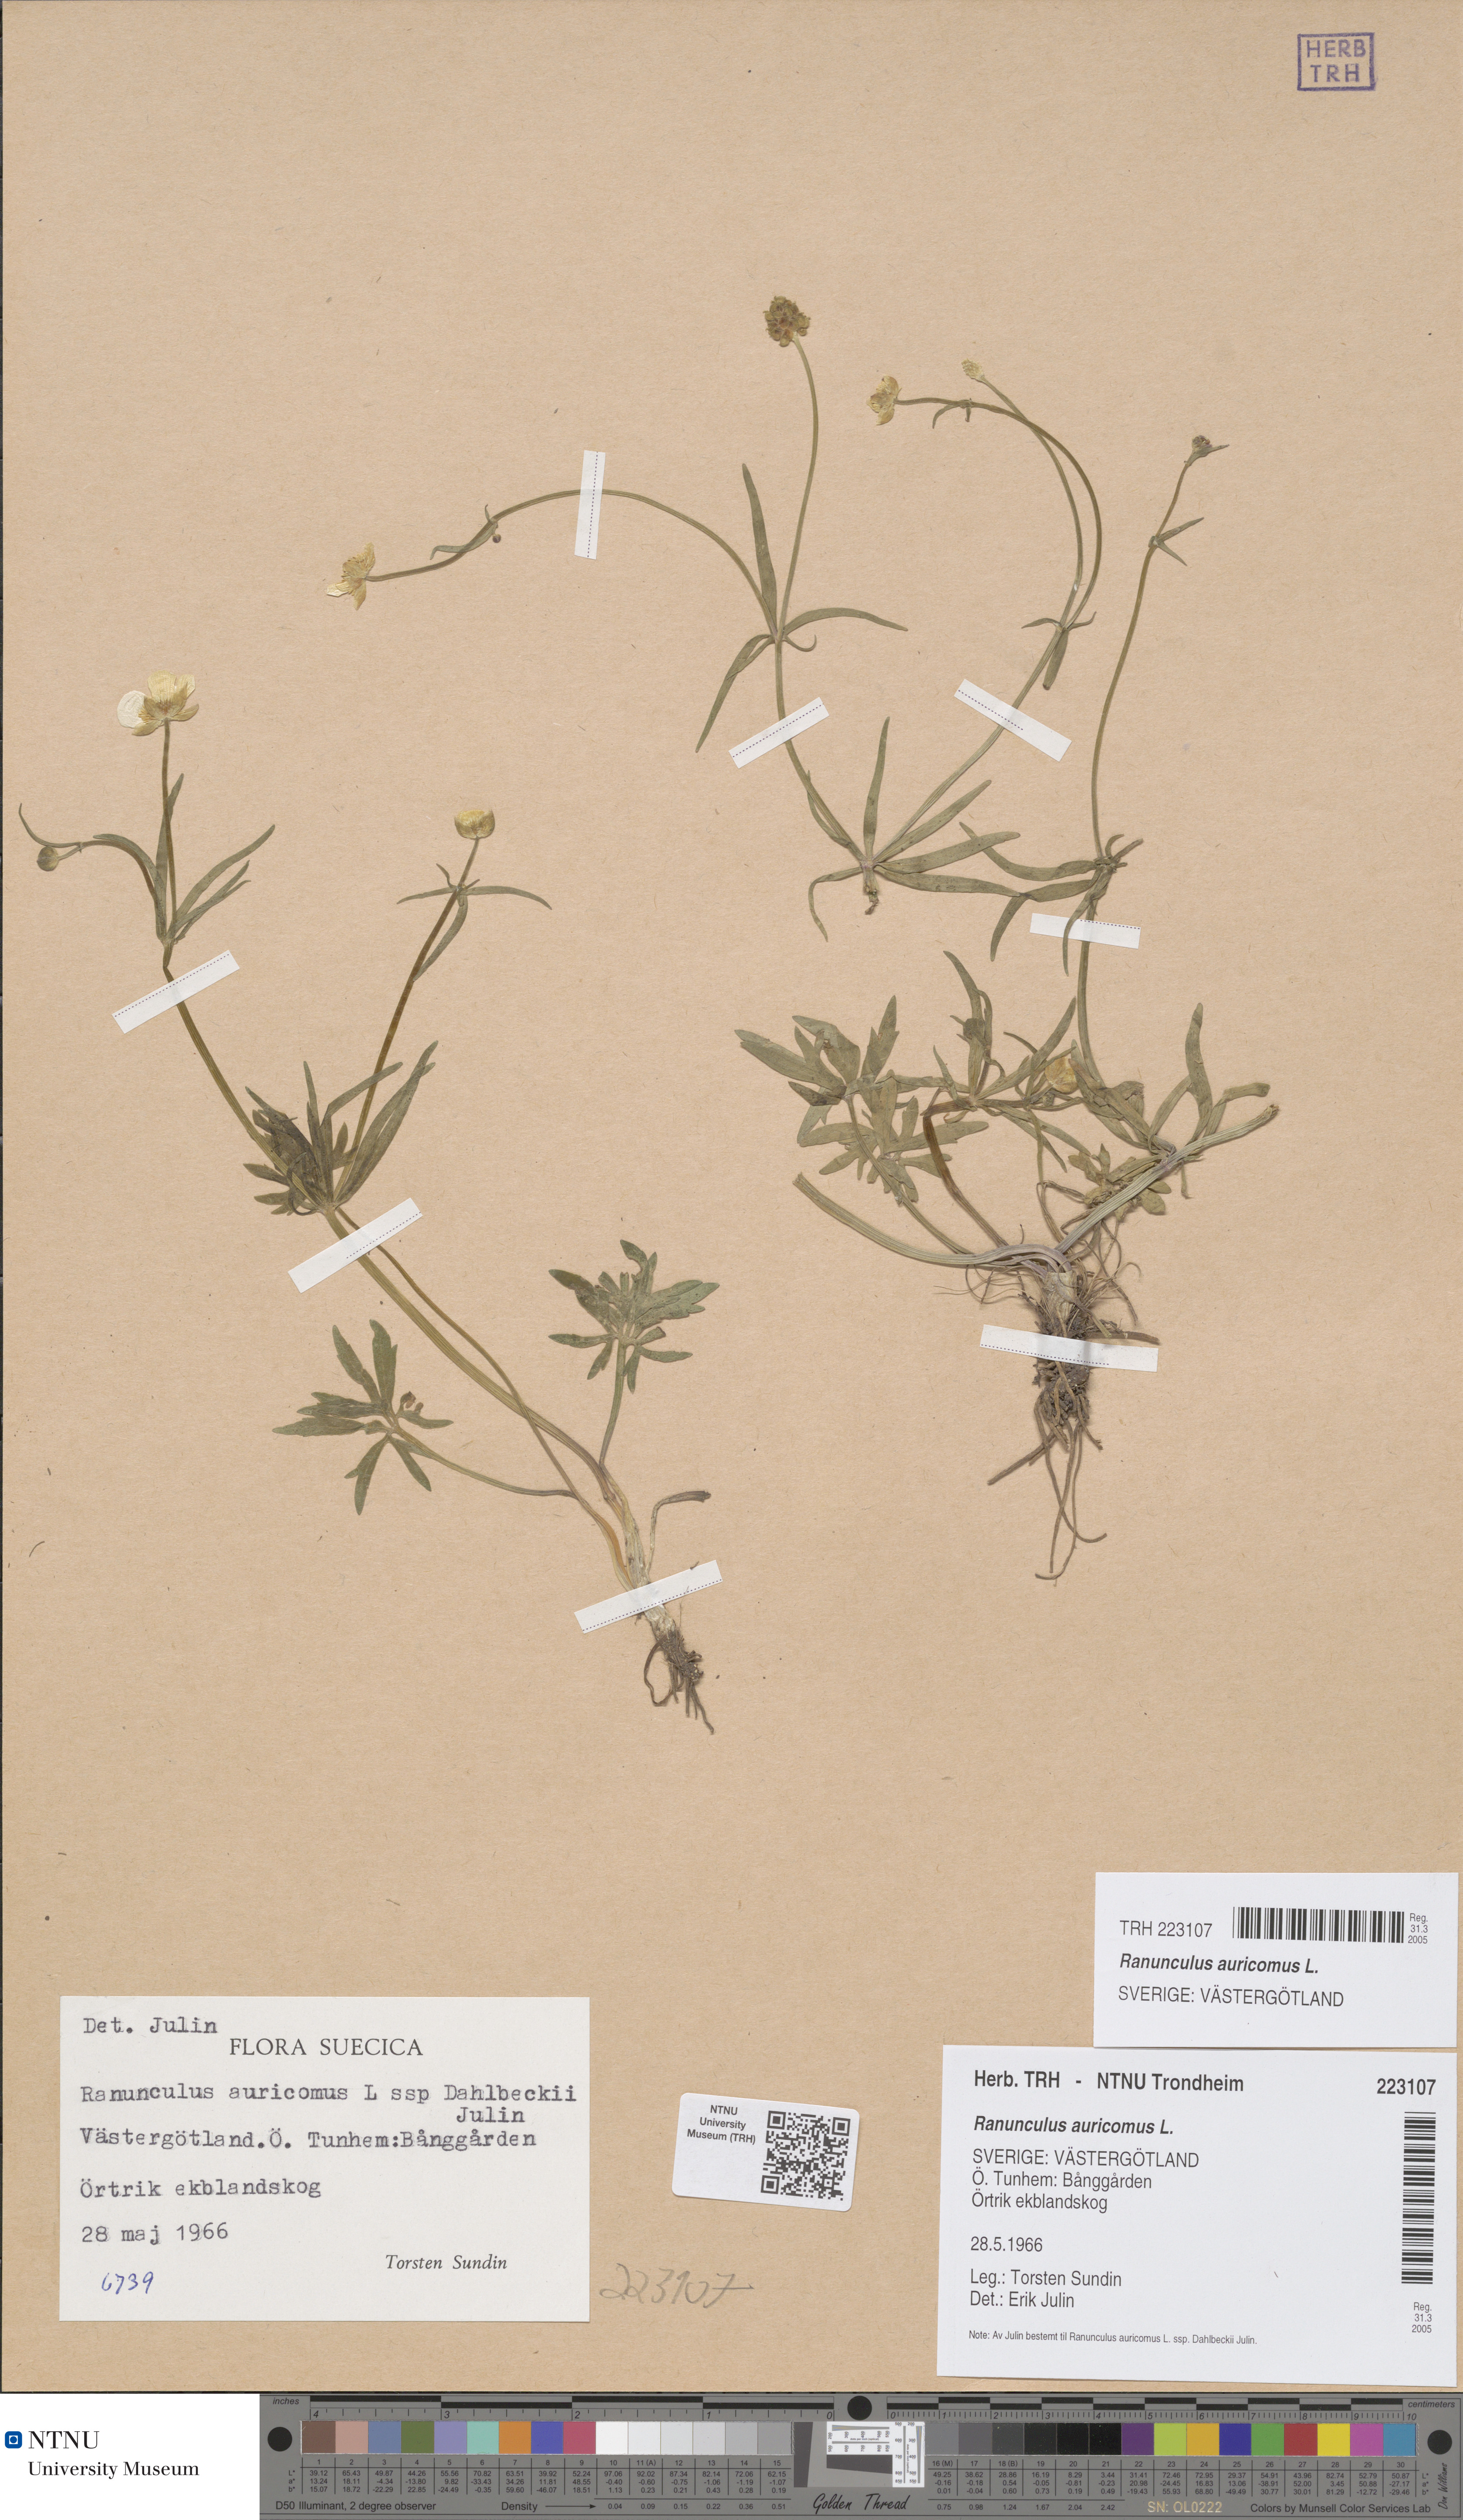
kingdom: Plantae
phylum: Tracheophyta
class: Magnoliopsida
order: Ranunculales
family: Ranunculaceae
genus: Ranunculus
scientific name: Ranunculus auricomus
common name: Goldilocks buttercup
